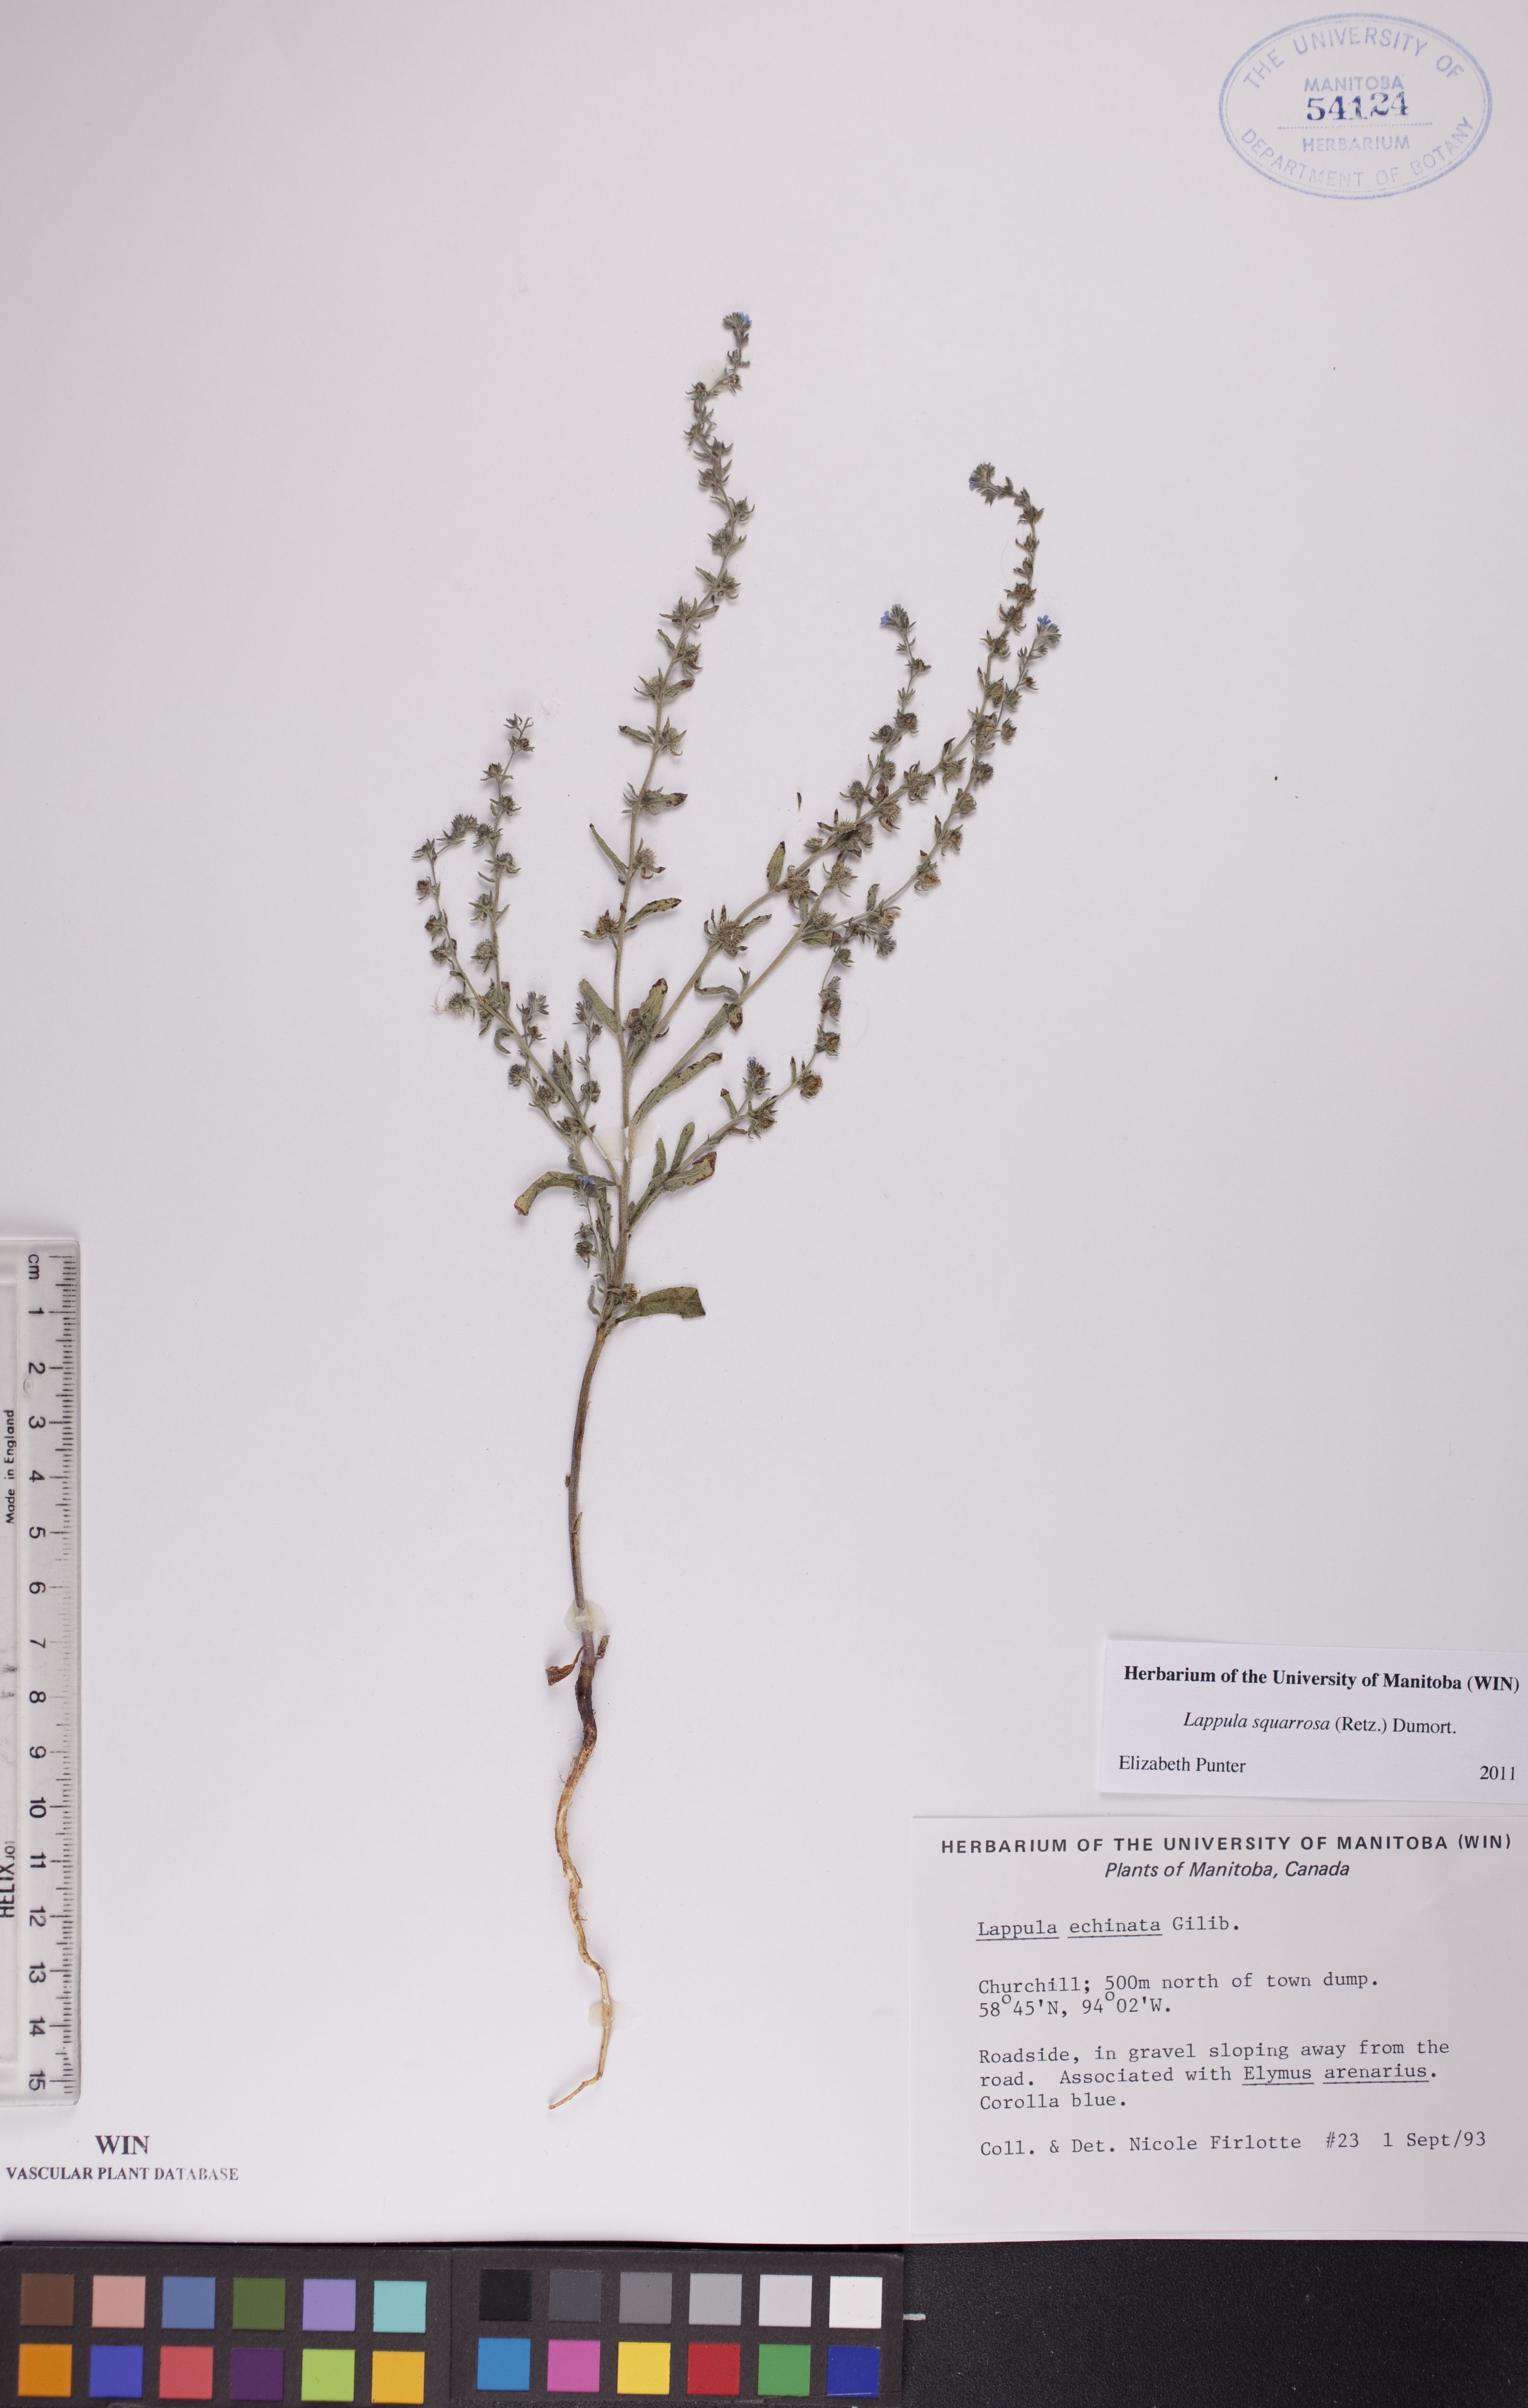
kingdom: Plantae
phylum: Tracheophyta
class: Magnoliopsida
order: Boraginales
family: Boraginaceae
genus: Lappula
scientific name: Lappula squarrosa
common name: European stickseed
